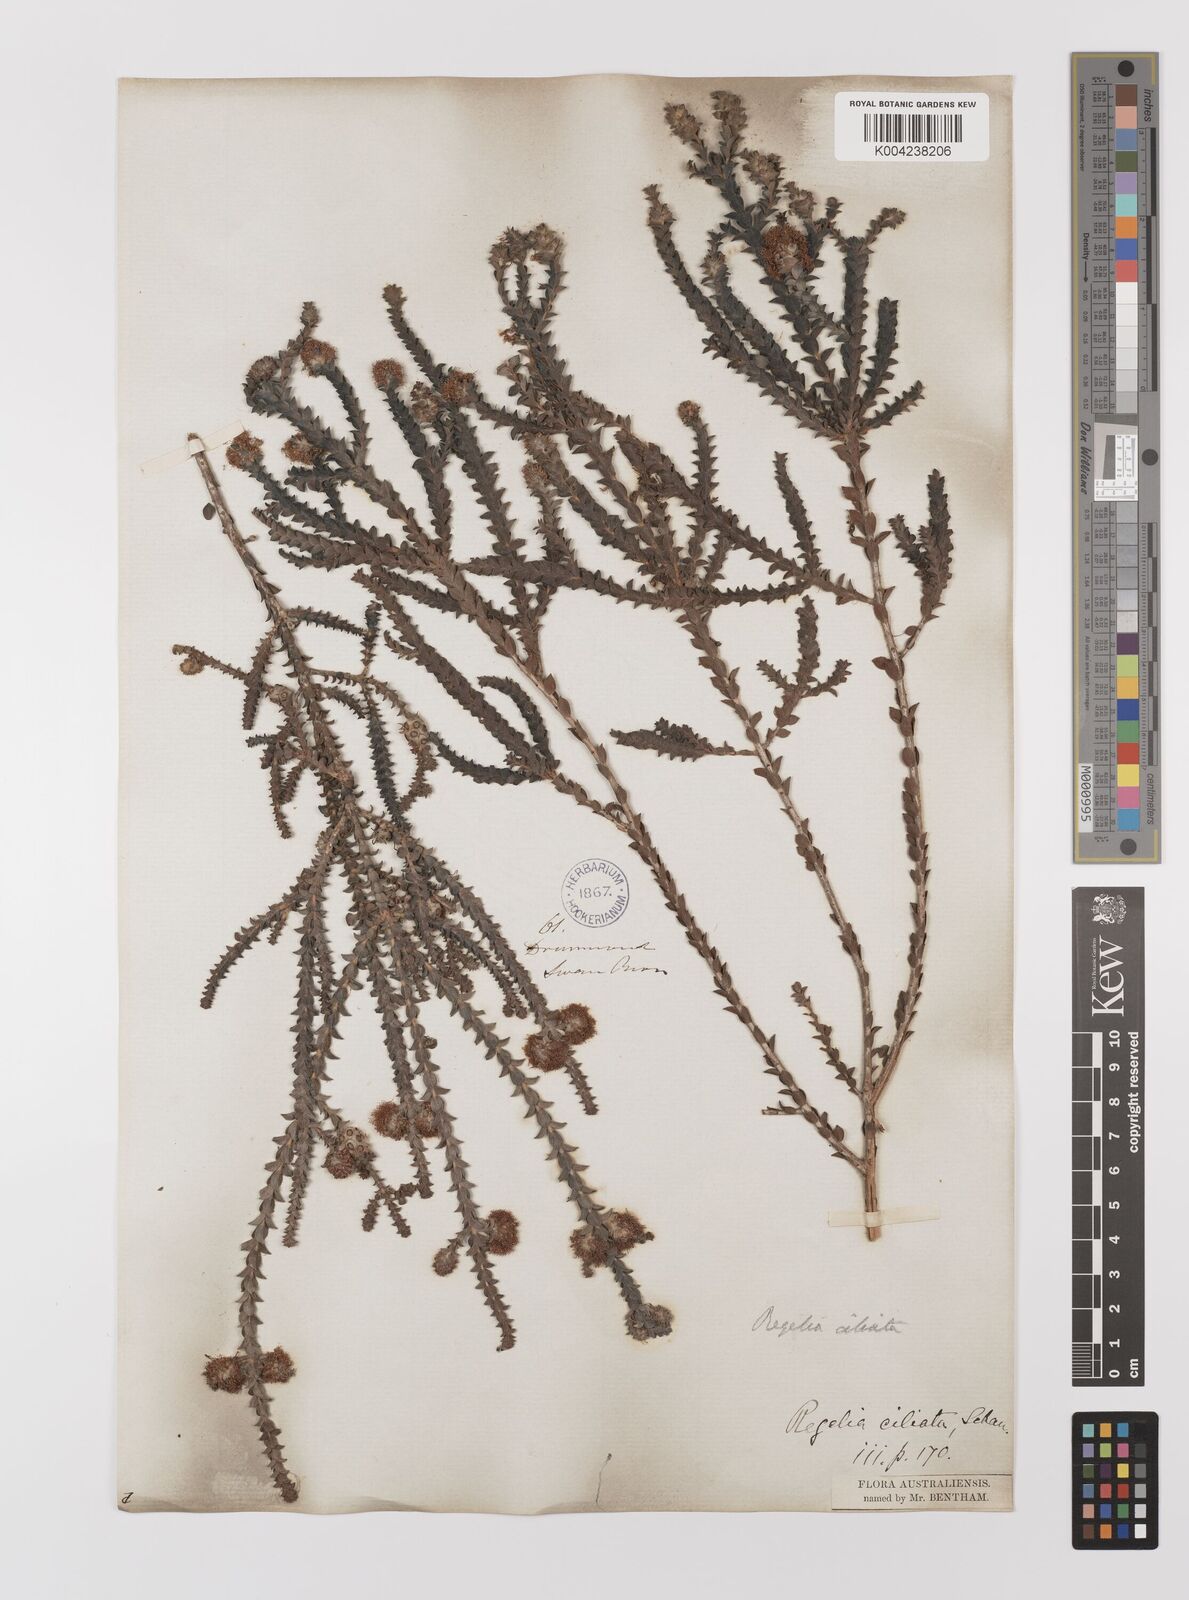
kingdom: Plantae
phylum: Tracheophyta
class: Magnoliopsida
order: Myrtales
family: Myrtaceae
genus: Melaleuca
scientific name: Melaleuca crossota
